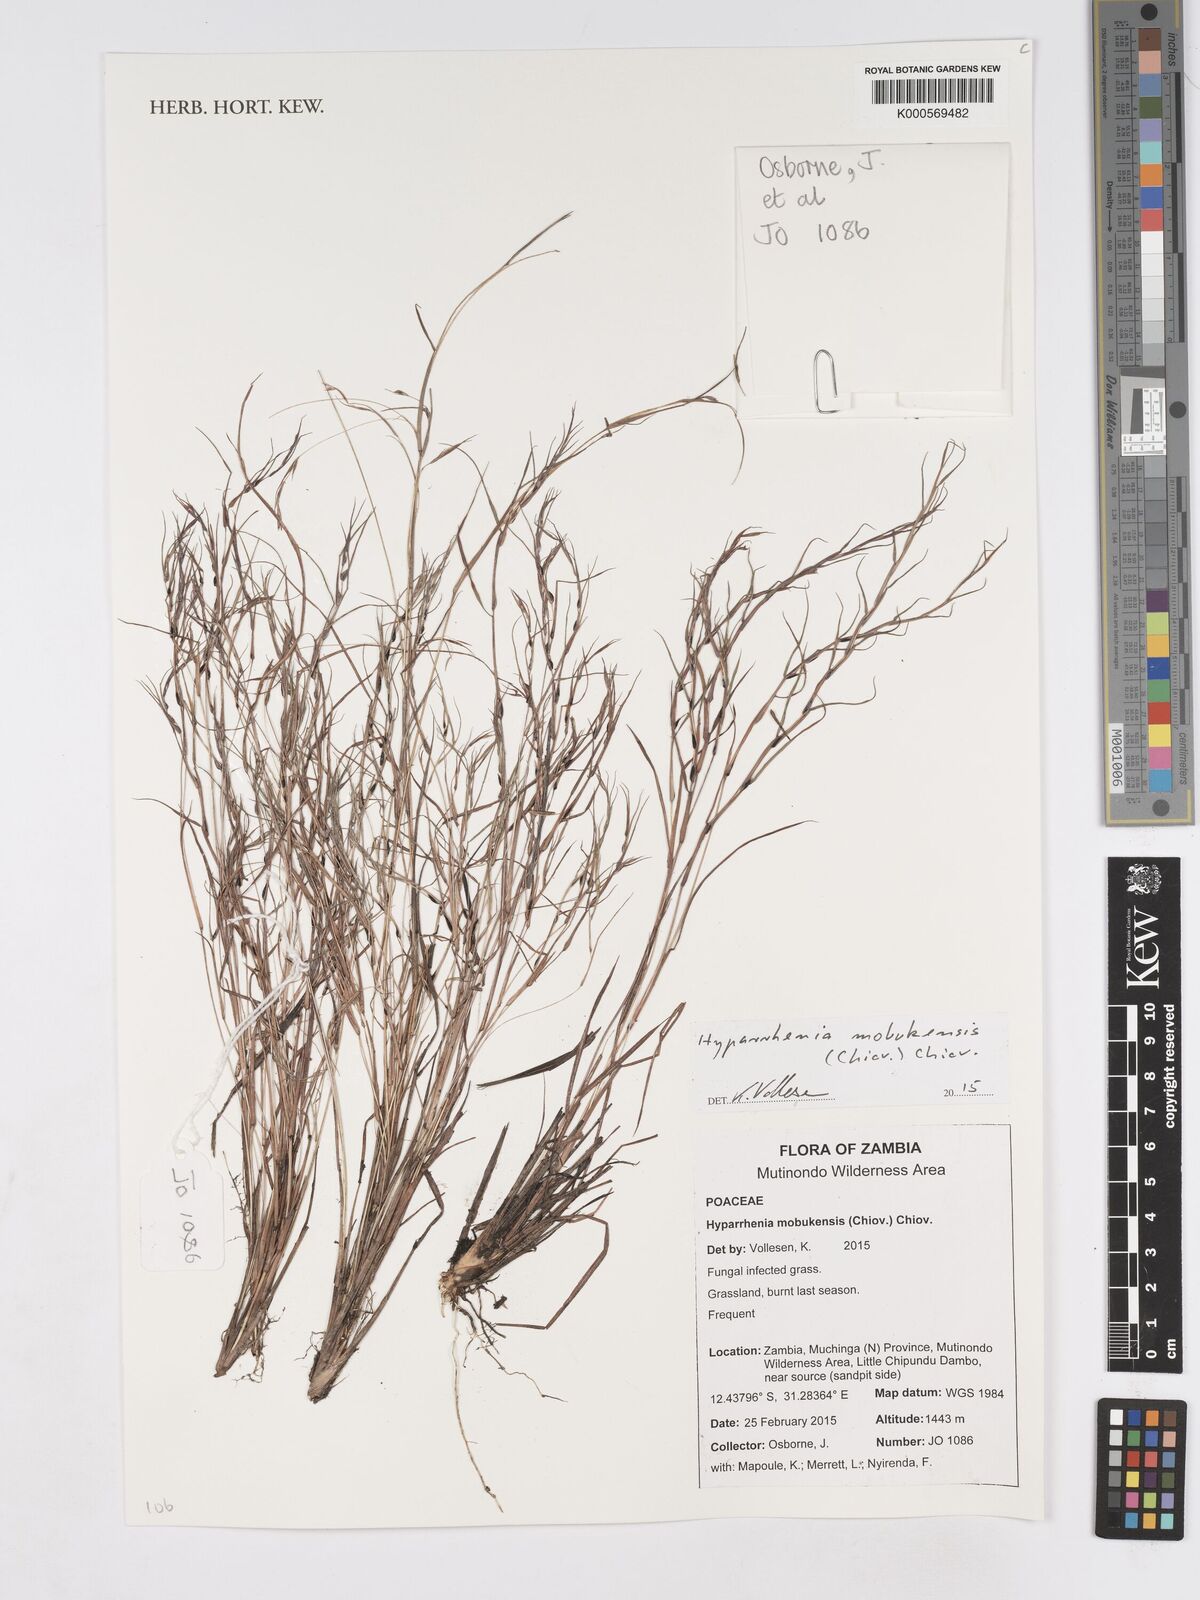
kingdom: Plantae
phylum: Tracheophyta
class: Liliopsida
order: Poales
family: Poaceae
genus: Hyparrhenia
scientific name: Hyparrhenia mobukensis
